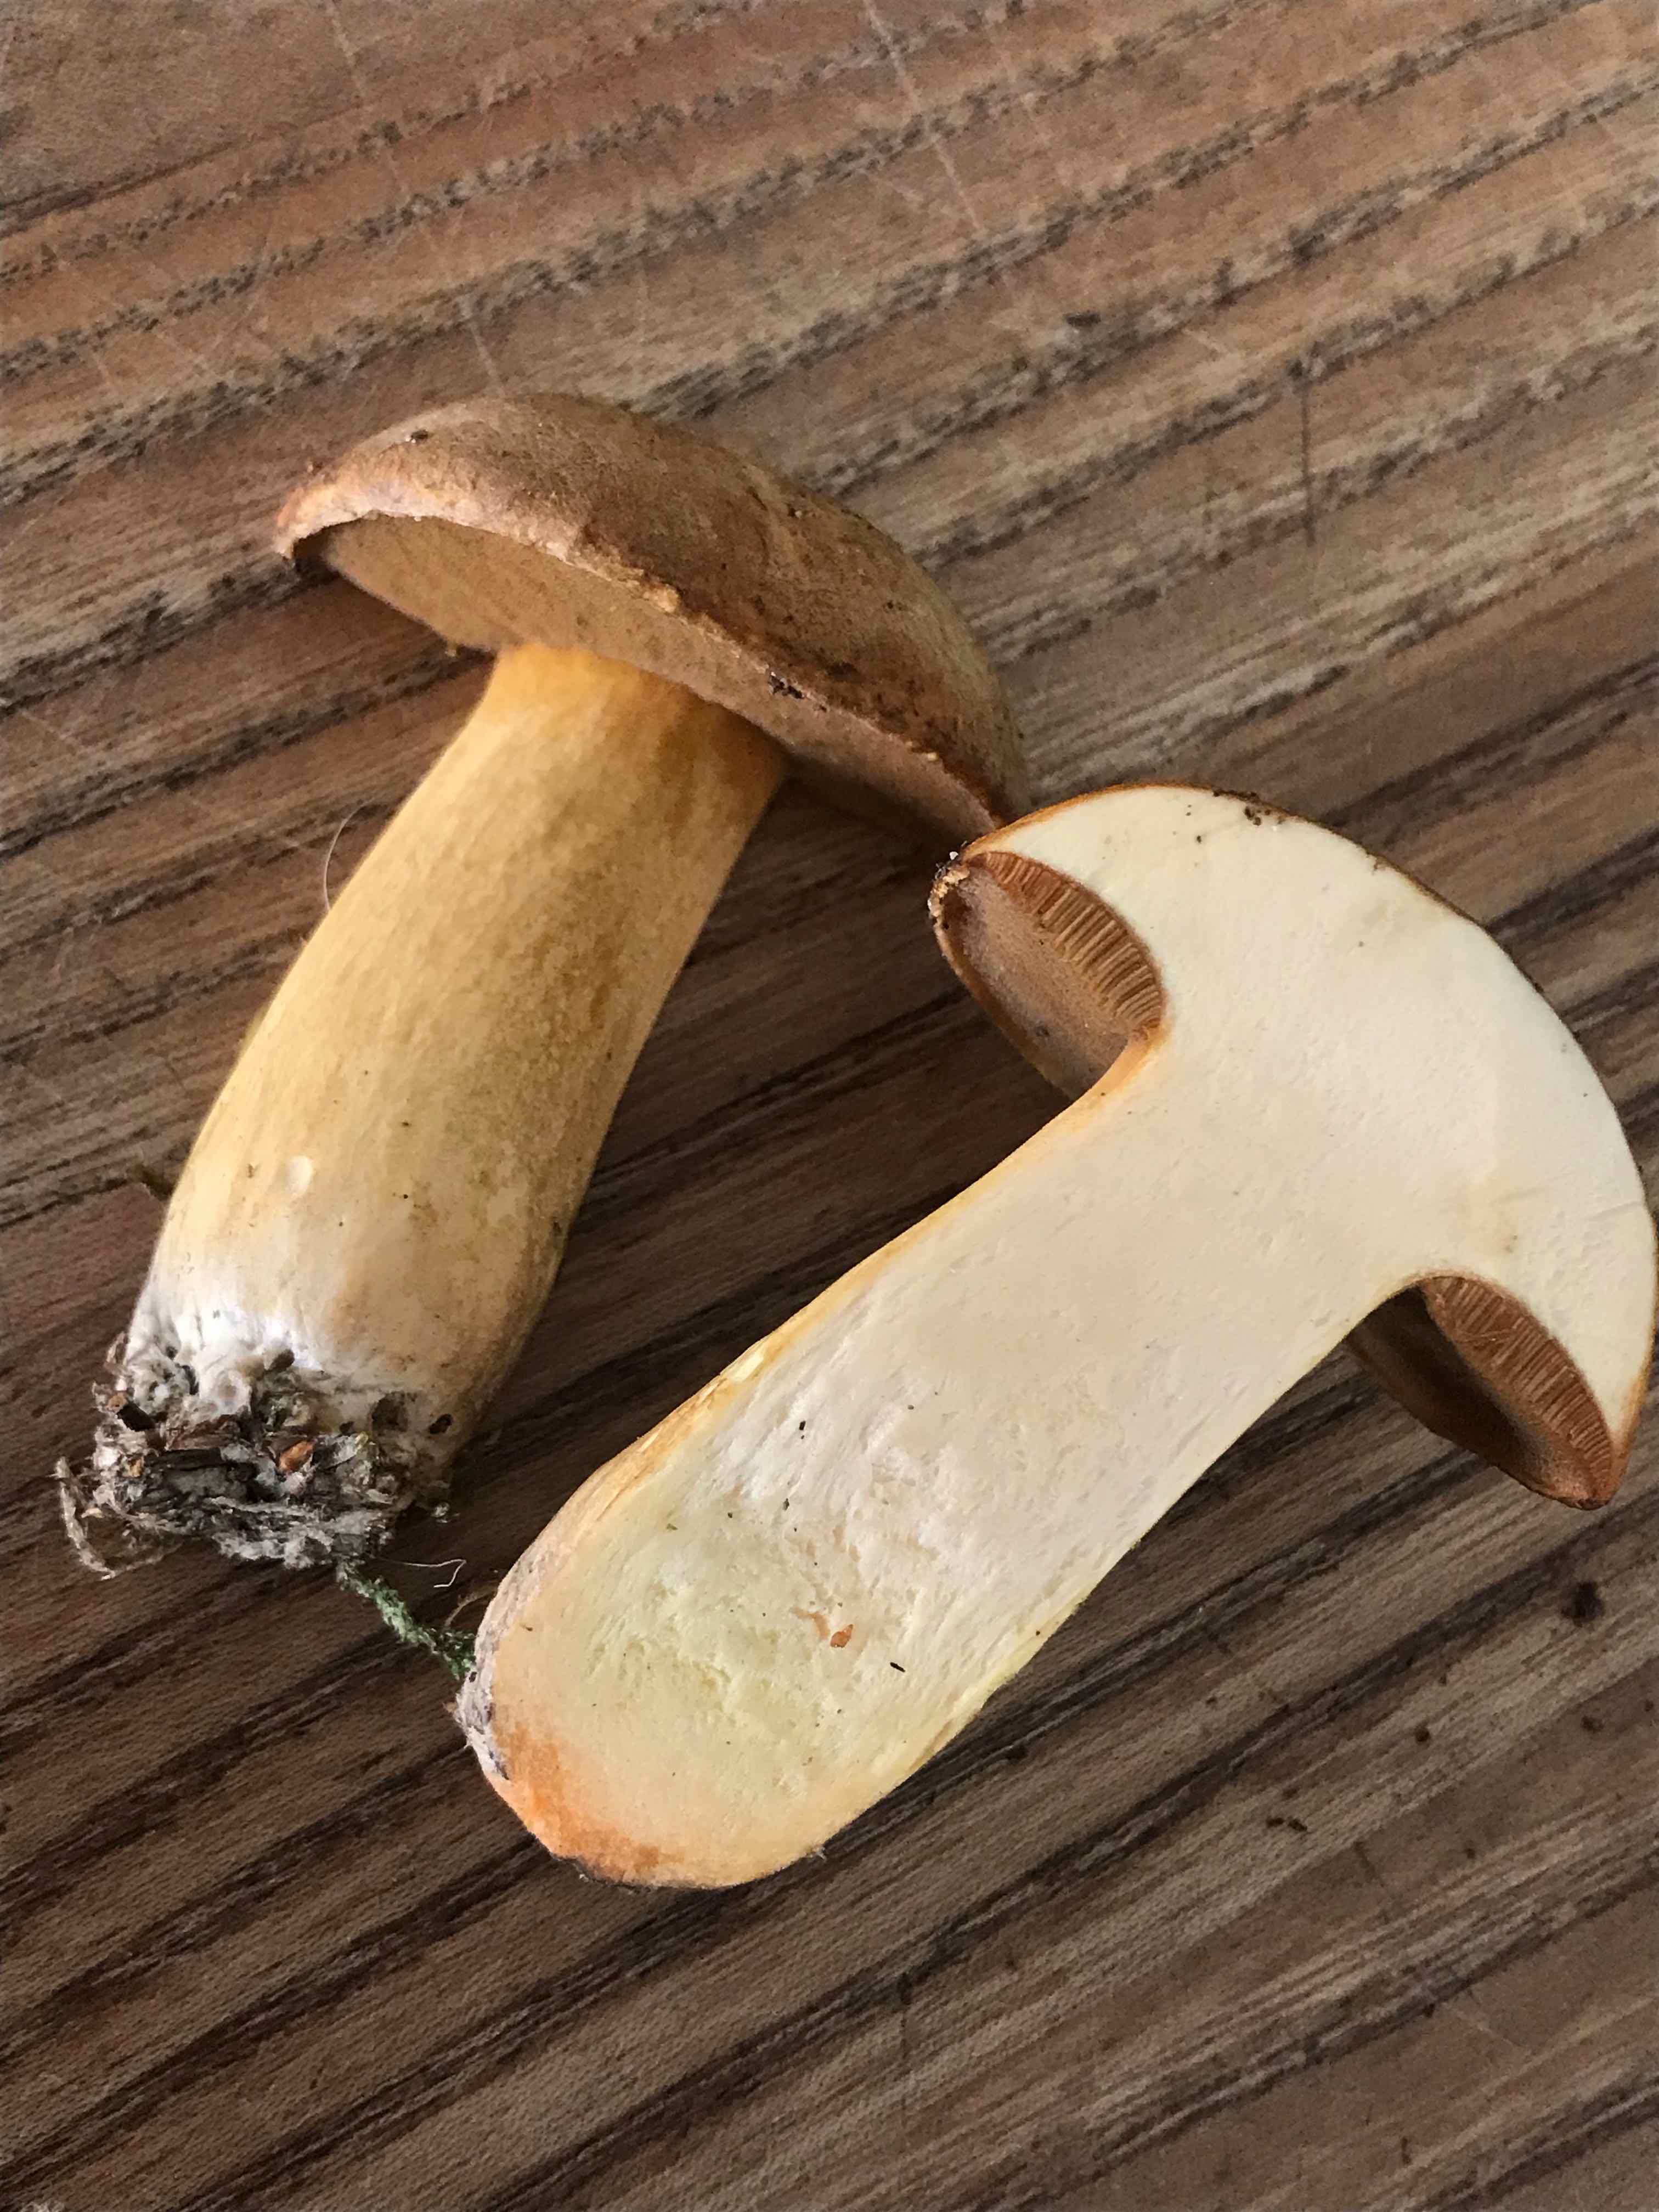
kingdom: Fungi
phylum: Basidiomycota
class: Agaricomycetes
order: Boletales
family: Suillaceae
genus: Suillus
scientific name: Suillus variegatus
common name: broget slimrørhat
